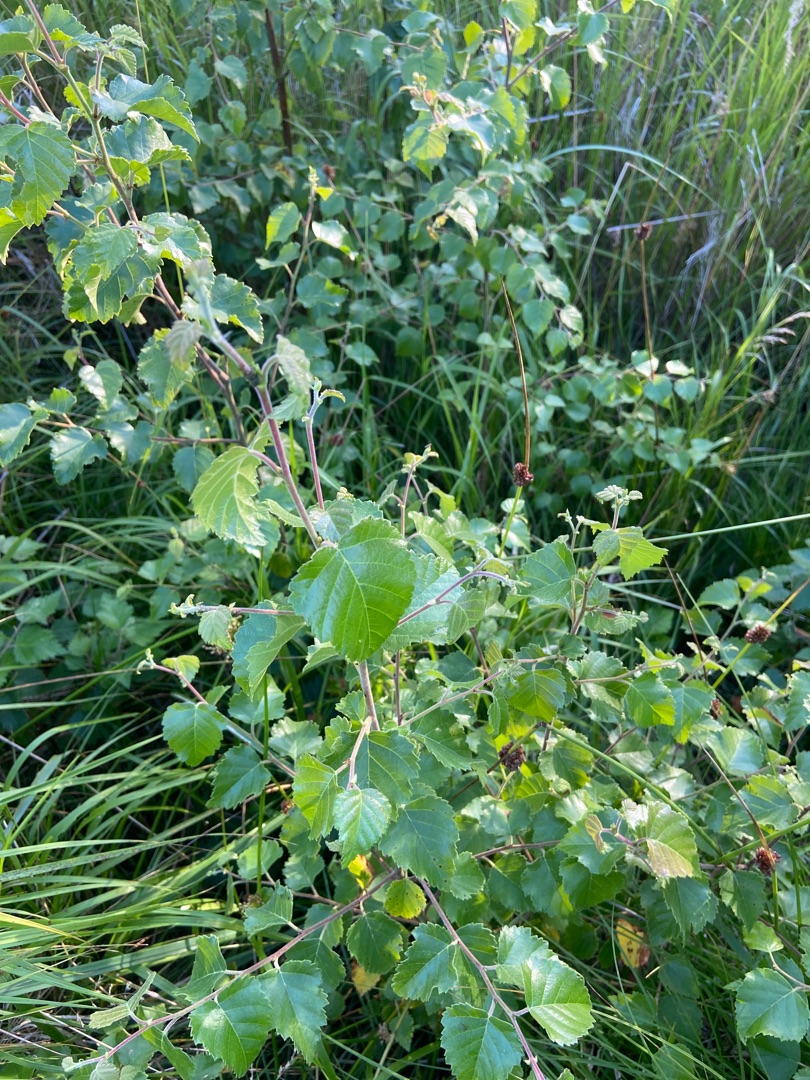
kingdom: Plantae
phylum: Tracheophyta
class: Magnoliopsida
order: Fagales
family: Betulaceae
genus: Betula
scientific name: Betula pubescens
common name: Dun-birk
